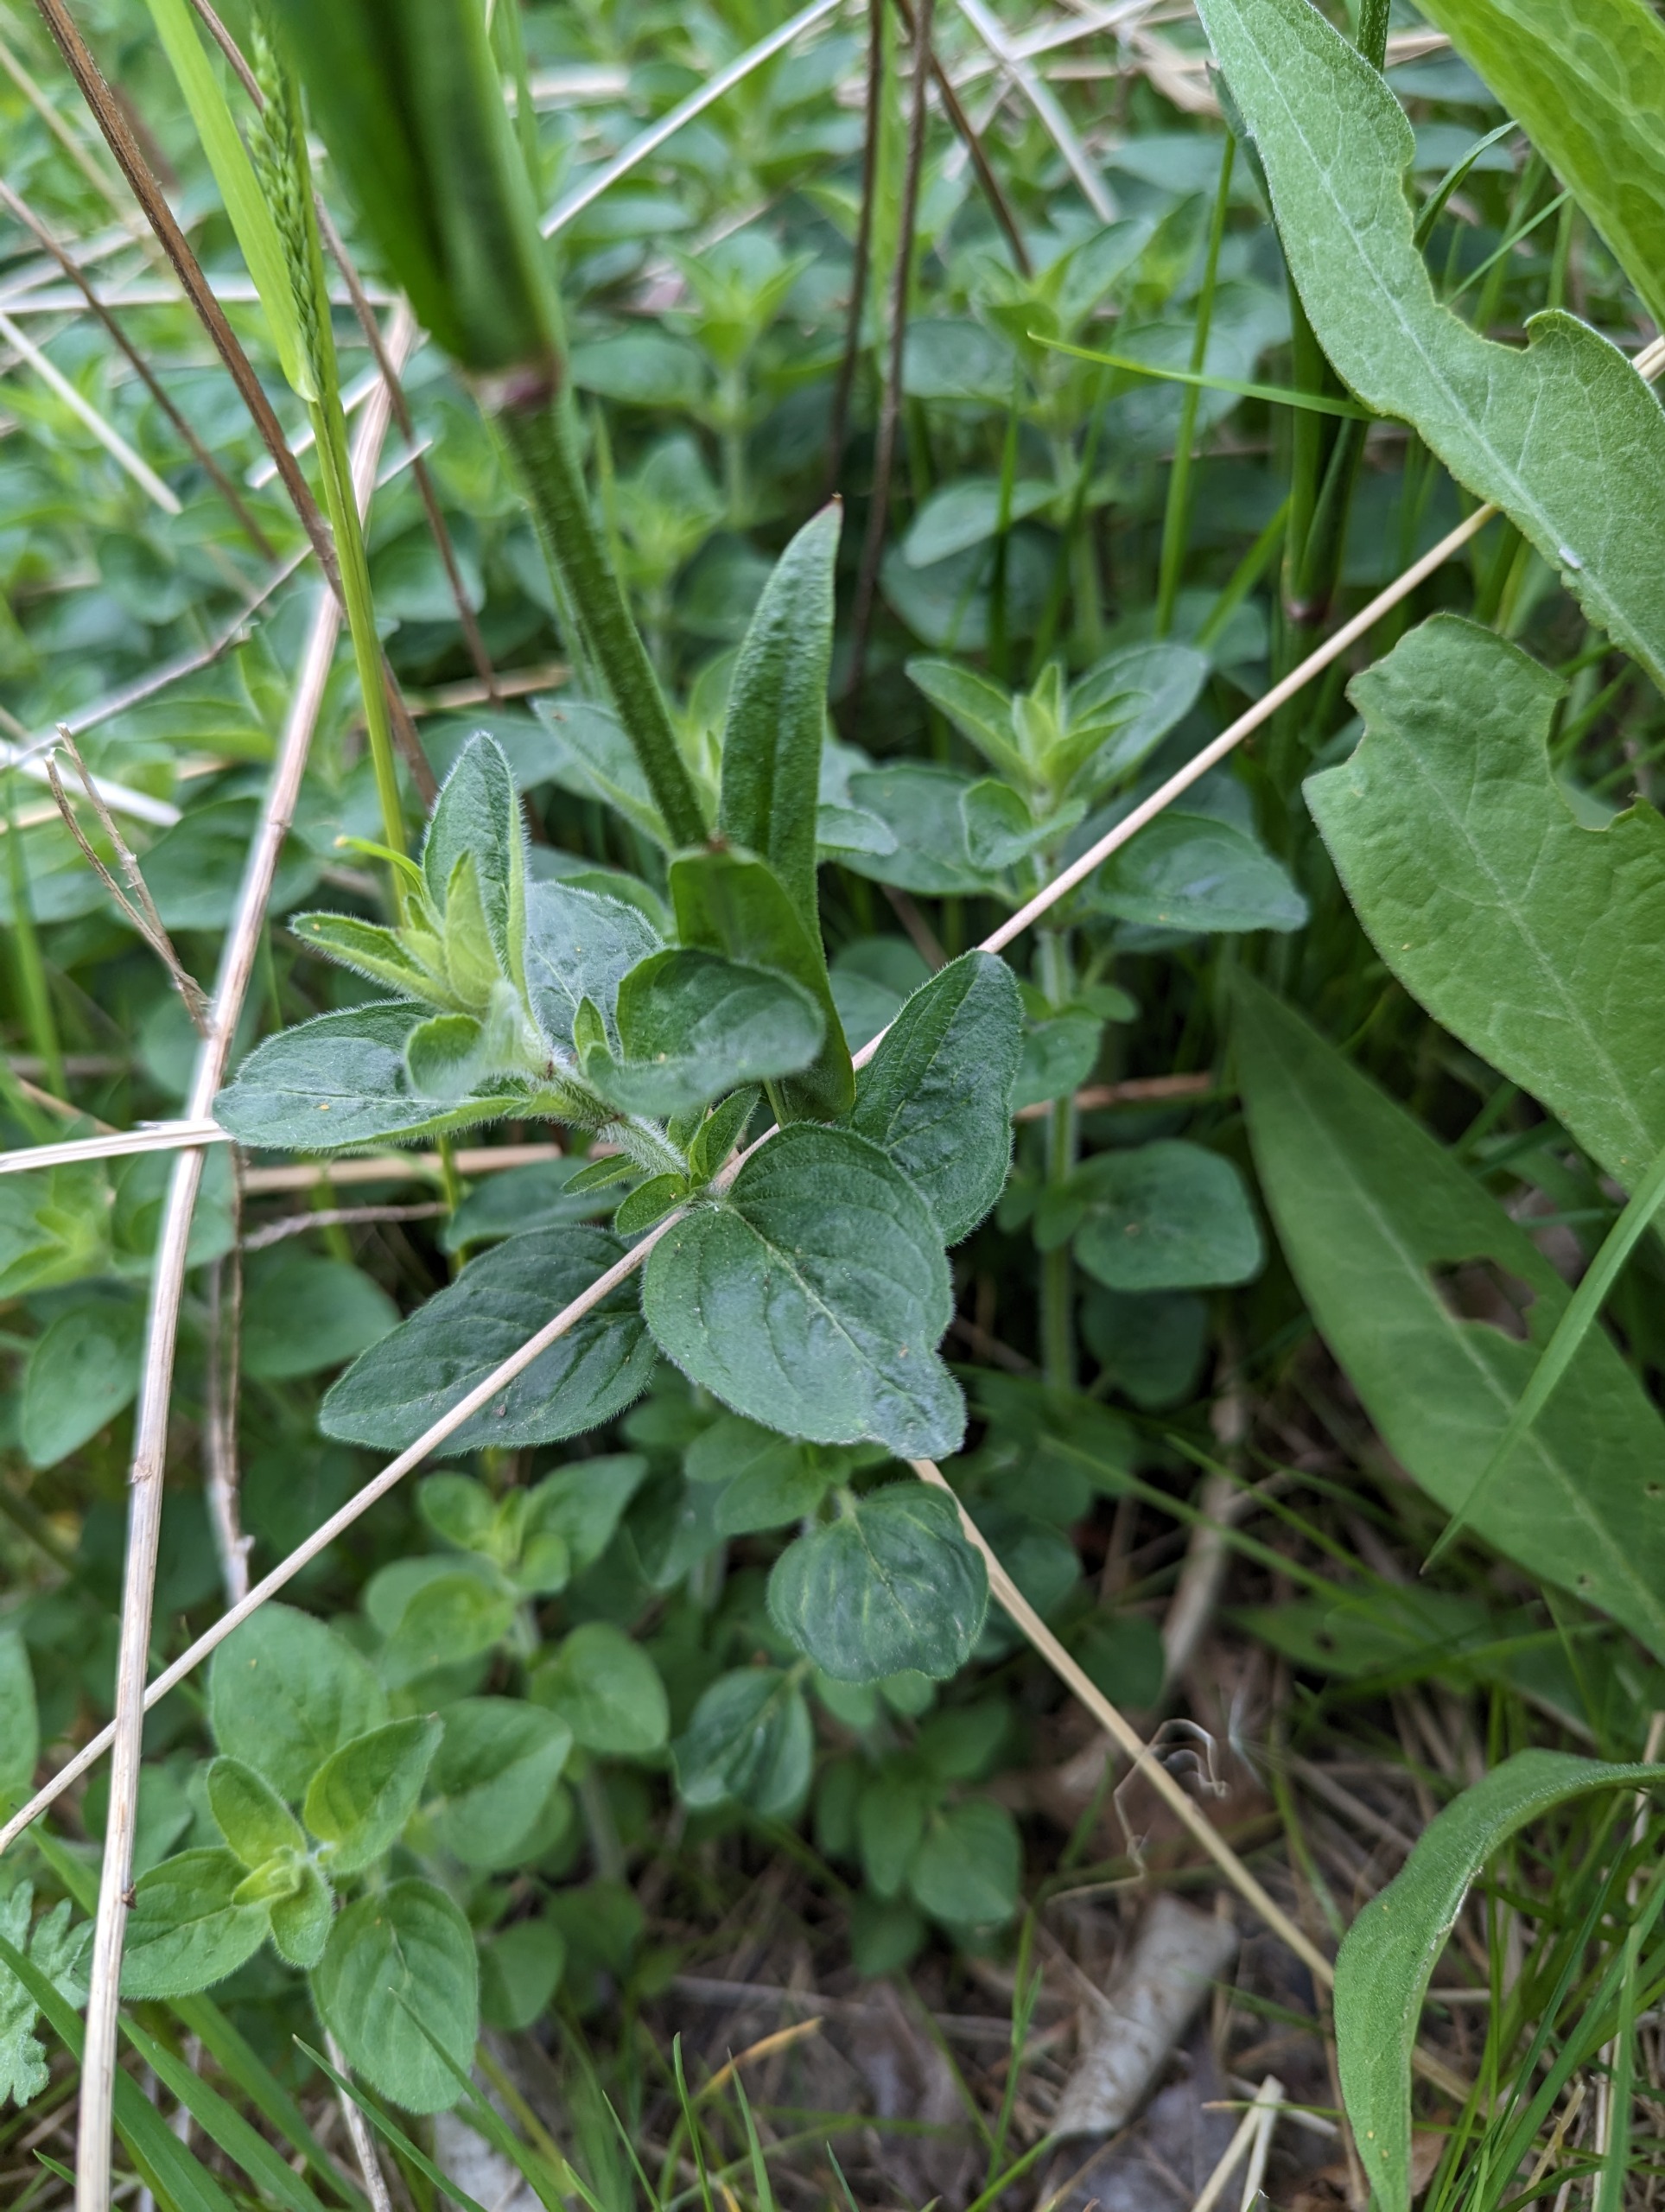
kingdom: Plantae
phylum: Tracheophyta
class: Magnoliopsida
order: Caryophyllales
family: Caryophyllaceae
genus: Silene
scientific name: Silene flos-cuculi
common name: Trævlekrone
